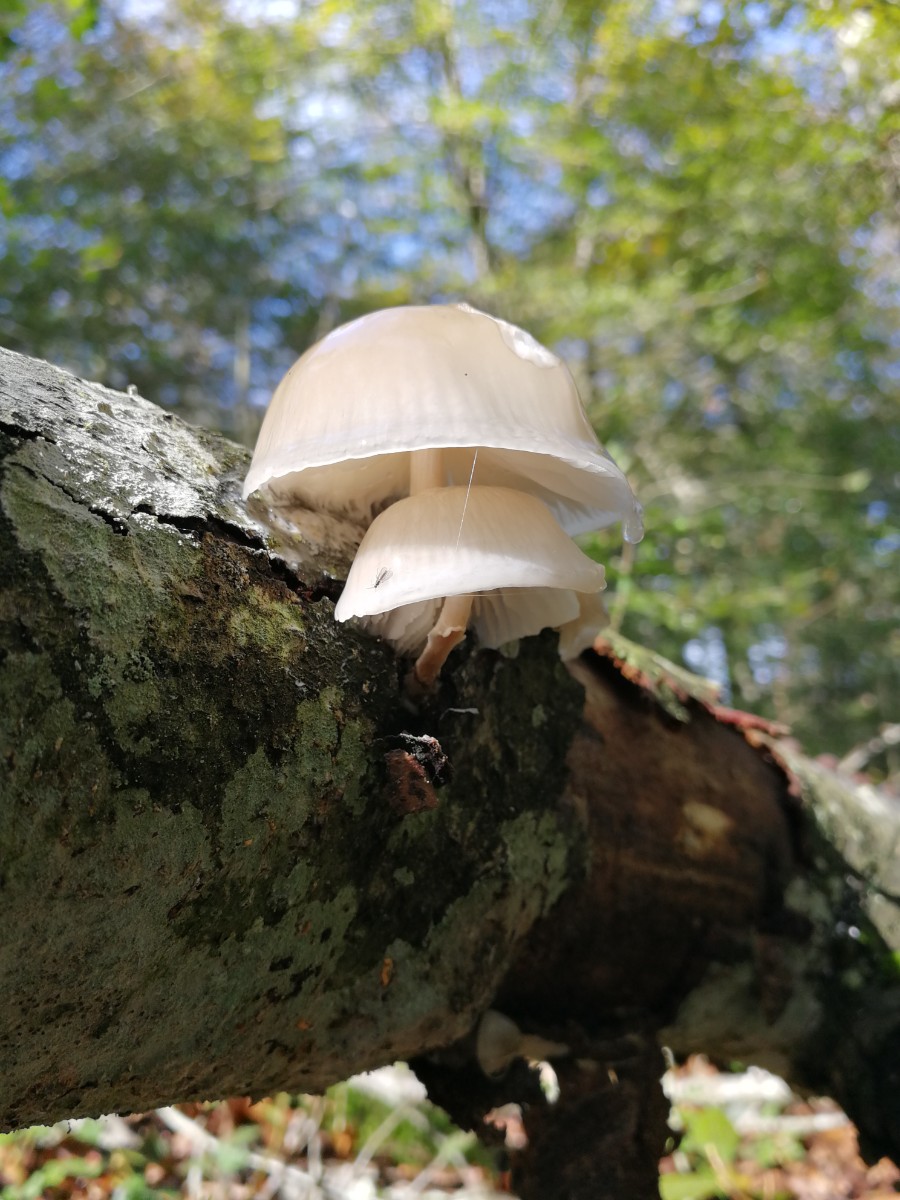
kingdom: Fungi
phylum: Basidiomycota
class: Agaricomycetes
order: Agaricales
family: Physalacriaceae
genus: Mucidula
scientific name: Mucidula mucida
